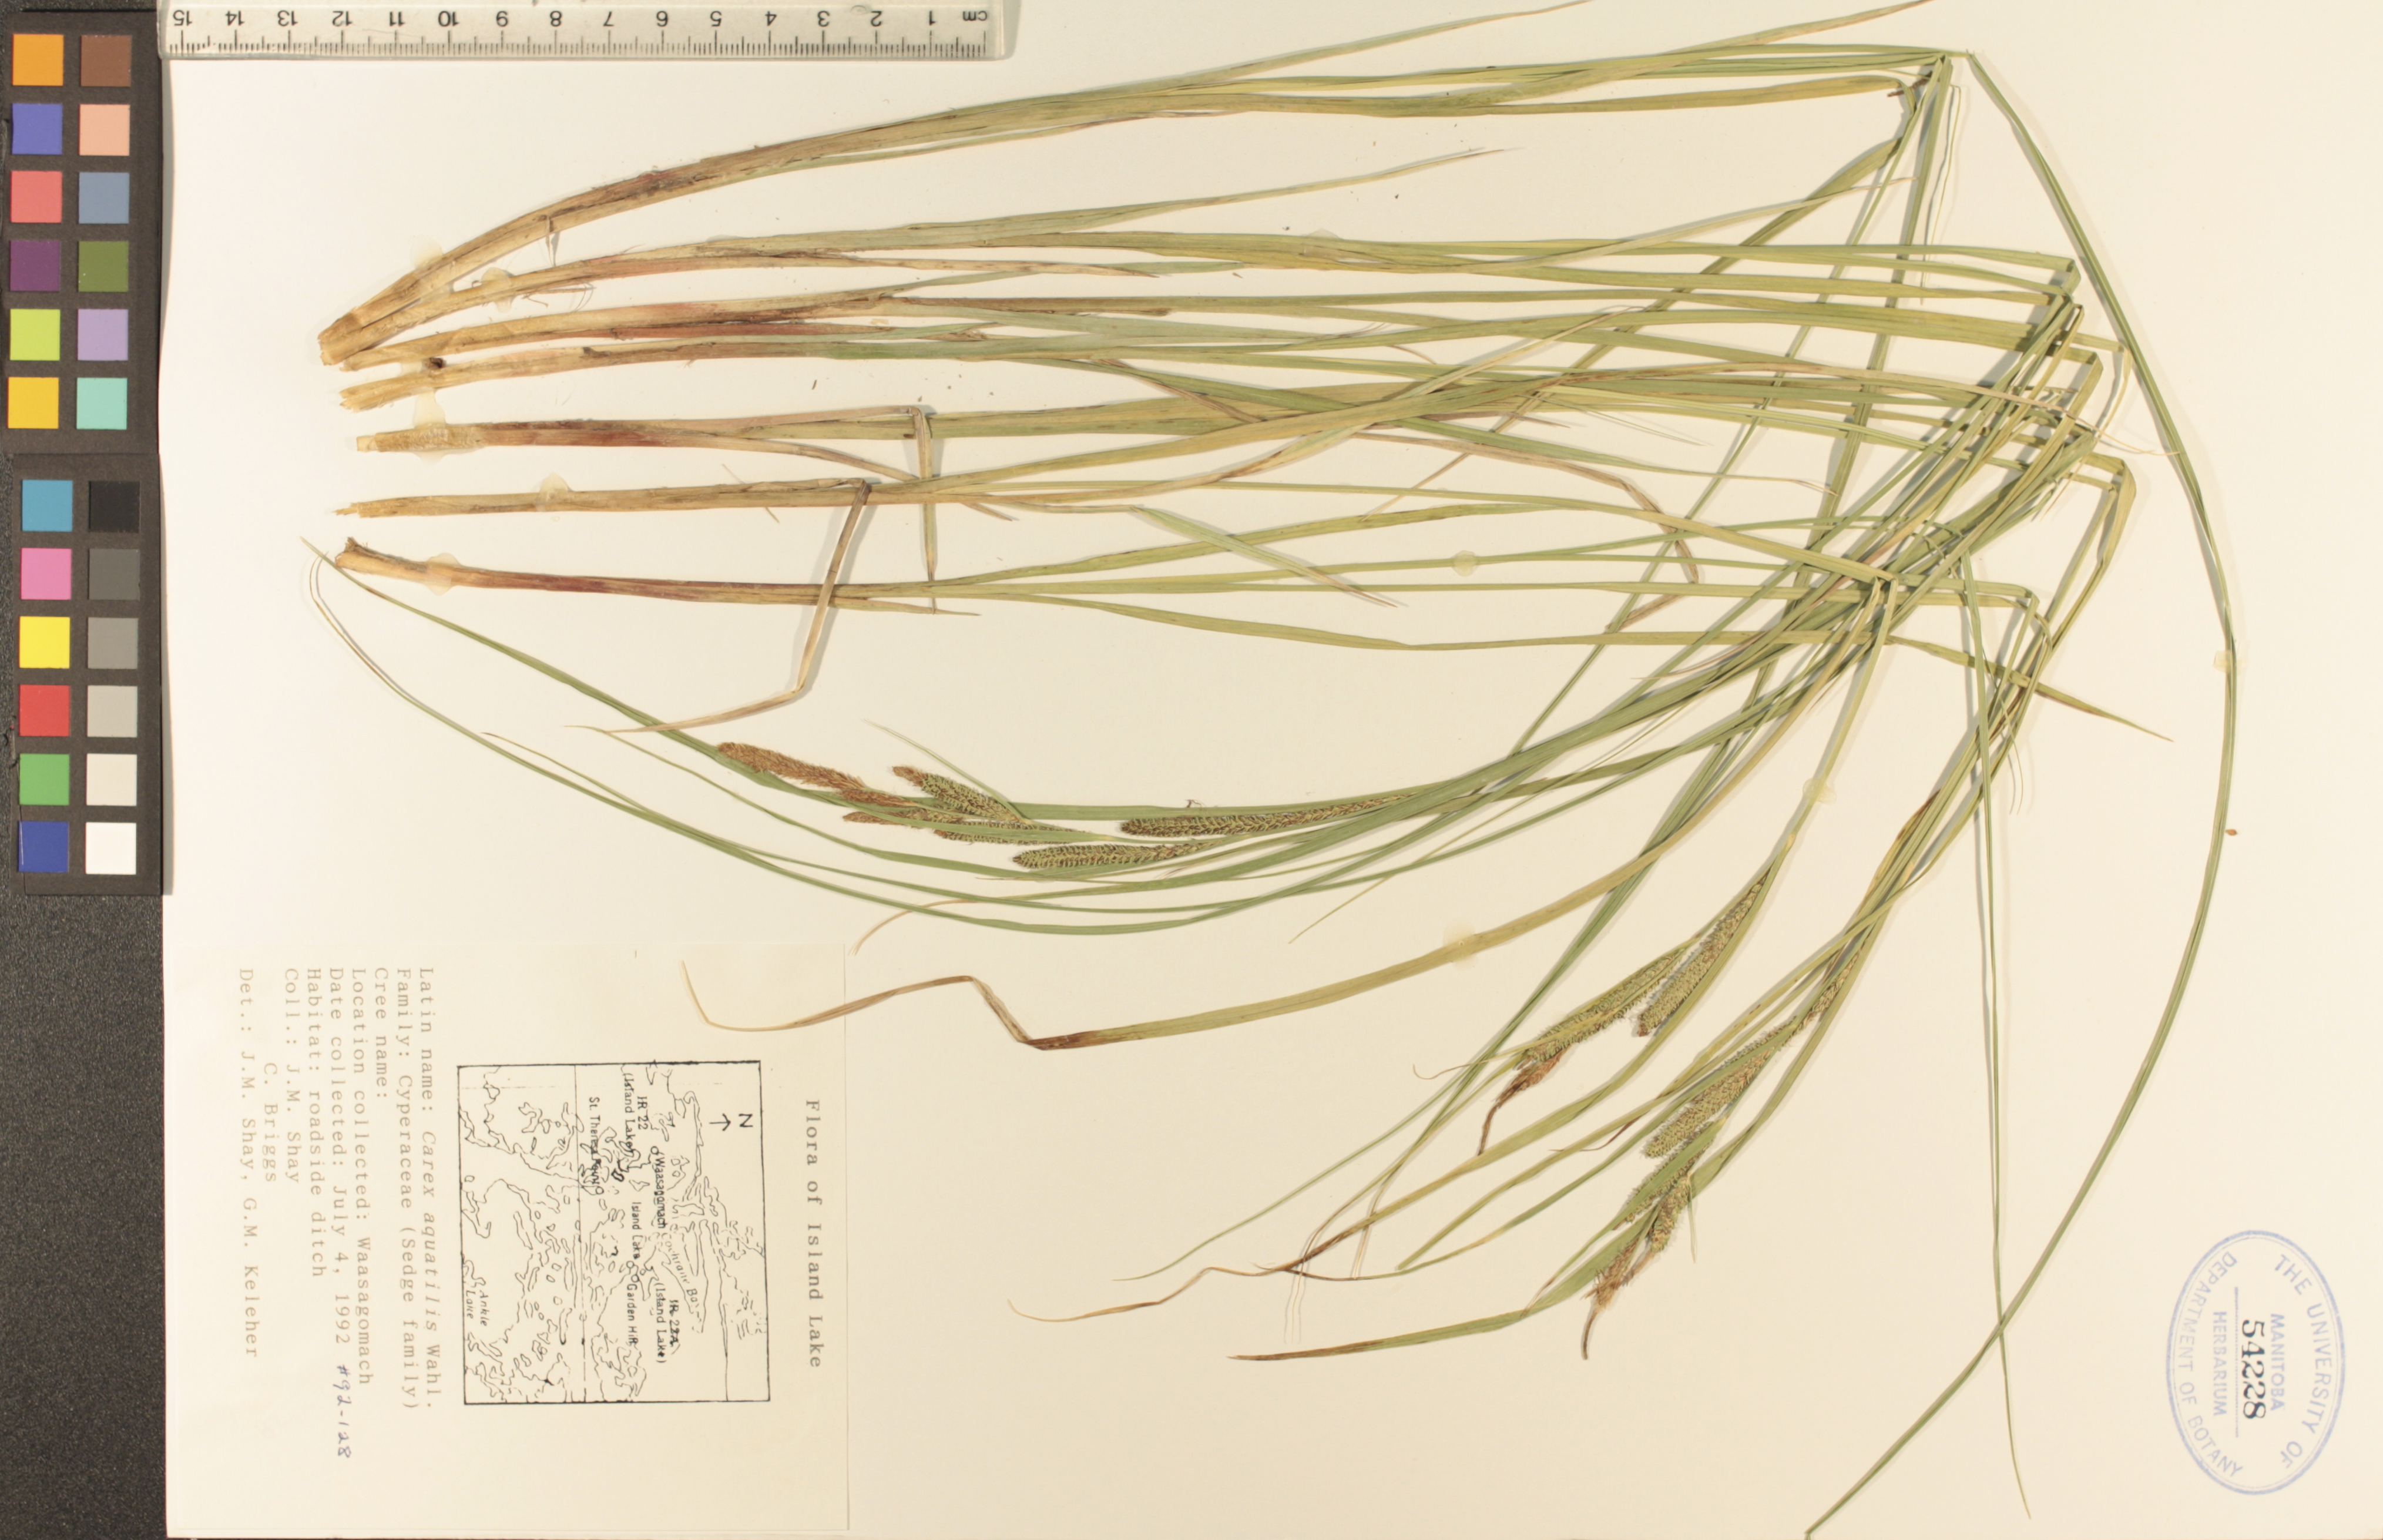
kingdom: Plantae
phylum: Tracheophyta
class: Liliopsida
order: Poales
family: Cyperaceae
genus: Carex
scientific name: Carex aquatilis
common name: Water sedge
